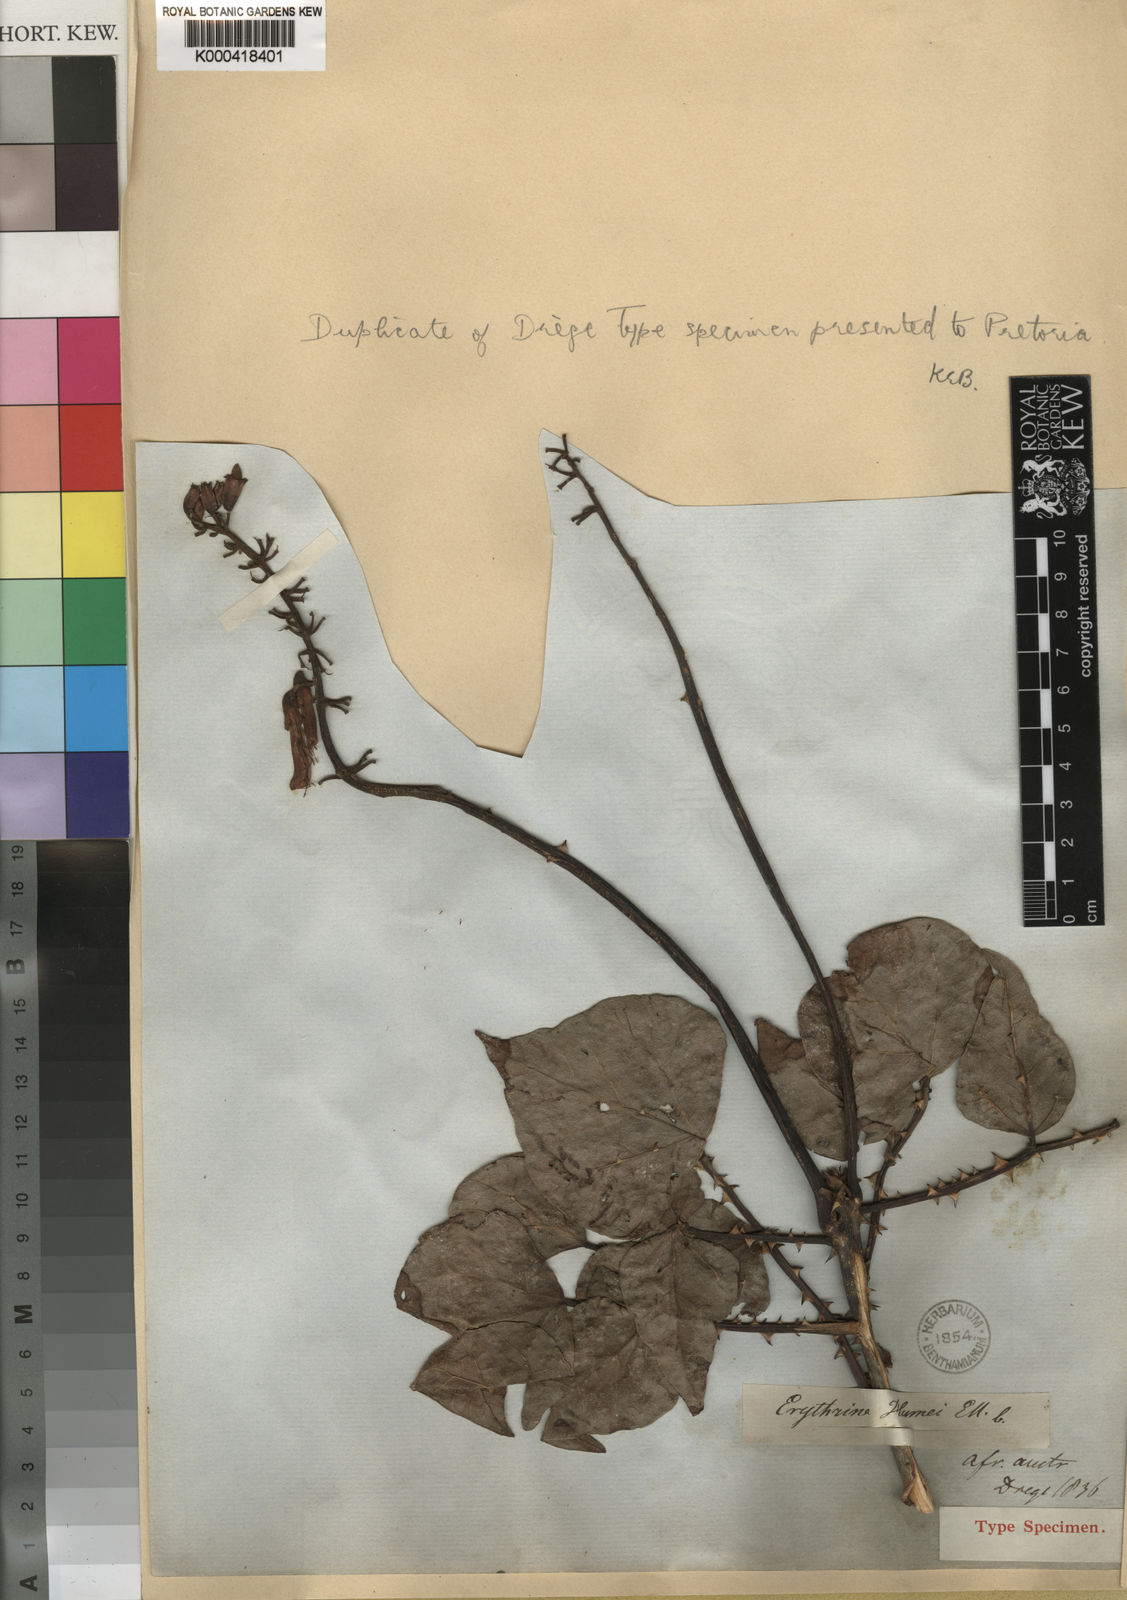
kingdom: Plantae
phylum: Tracheophyta
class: Magnoliopsida
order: Fabales
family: Fabaceae
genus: Erythrina
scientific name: Erythrina humeana
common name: Dwarf coral tree
